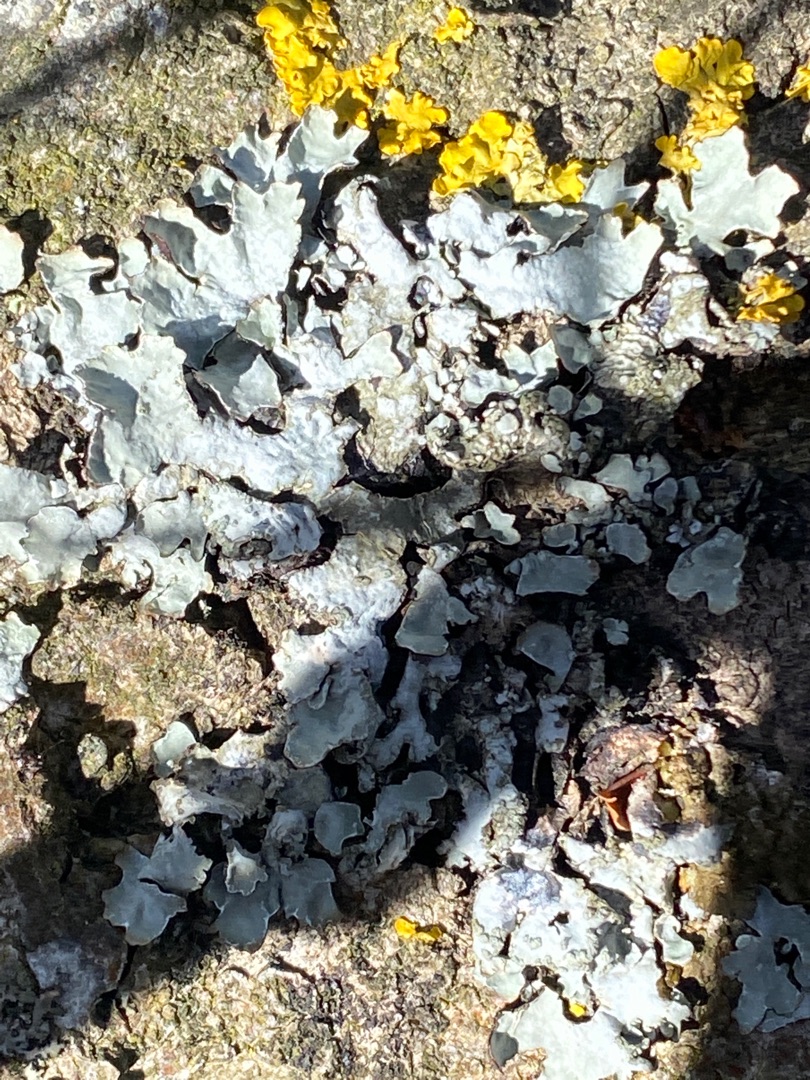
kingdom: Fungi
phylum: Ascomycota
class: Lecanoromycetes
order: Lecanorales
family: Parmeliaceae
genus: Parmelia
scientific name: Parmelia sulcata
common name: Rynket skållav
